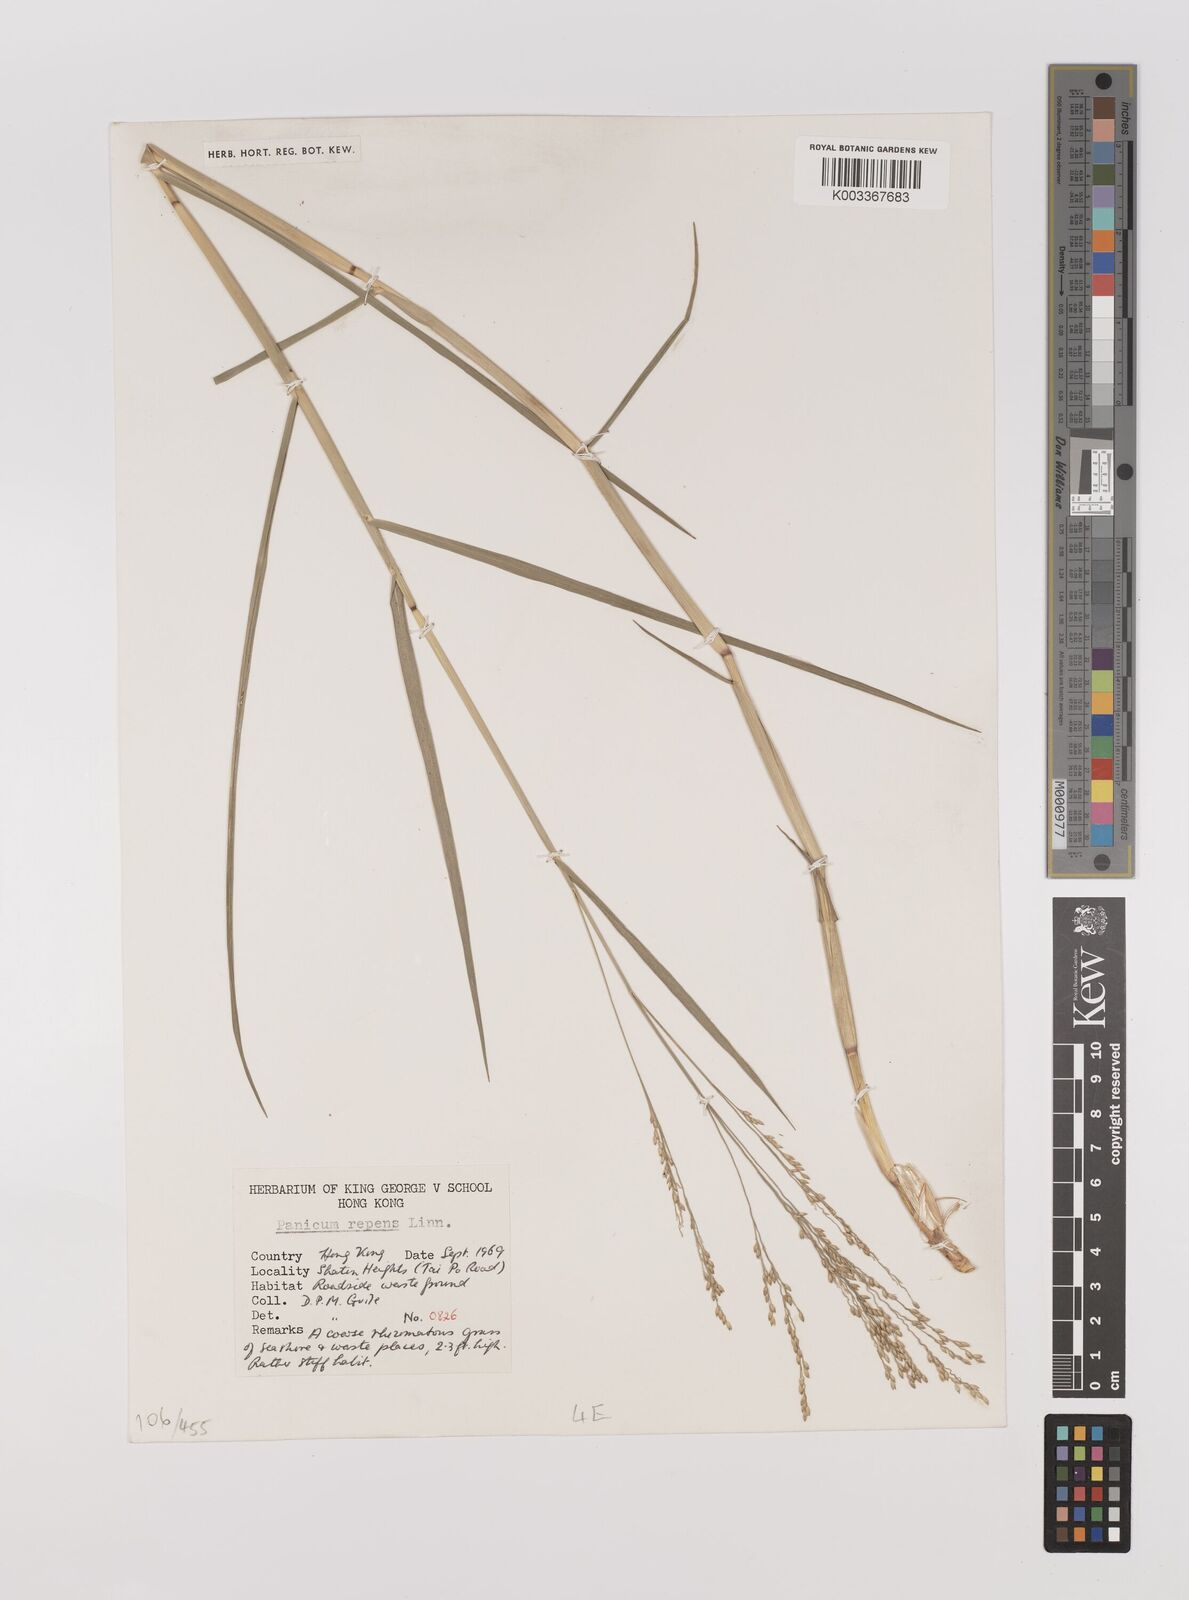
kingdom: Plantae
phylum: Tracheophyta
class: Liliopsida
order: Poales
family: Poaceae
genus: Panicum
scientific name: Panicum repens
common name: Torpedo grass
